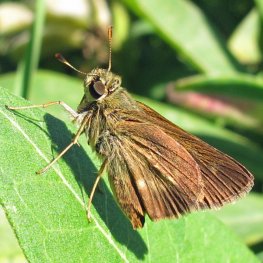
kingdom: Animalia
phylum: Arthropoda
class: Insecta
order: Lepidoptera
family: Hesperiidae
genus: Polites
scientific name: Polites themistocles
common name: Tawny-edged Skipper
